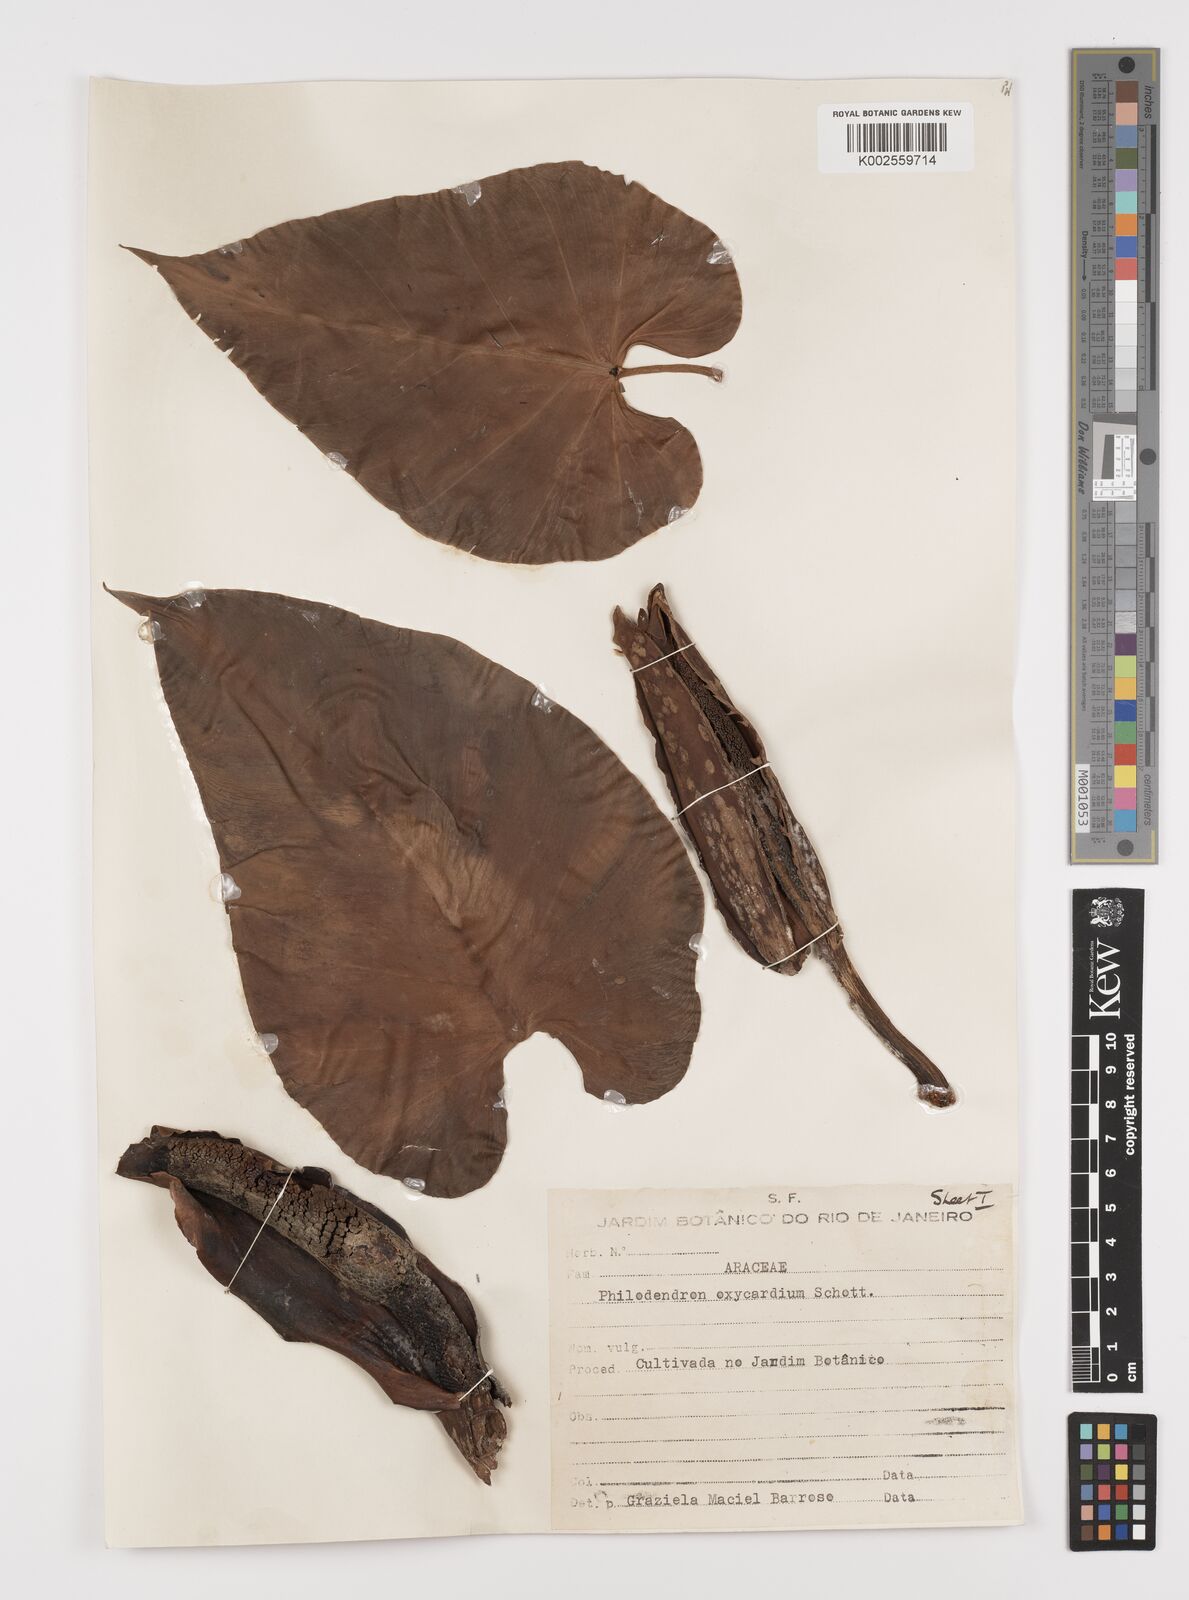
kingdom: Plantae
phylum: Tracheophyta
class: Liliopsida
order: Alismatales
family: Araceae
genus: Philodendron
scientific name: Philodendron hederaceum
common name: Vilevine
